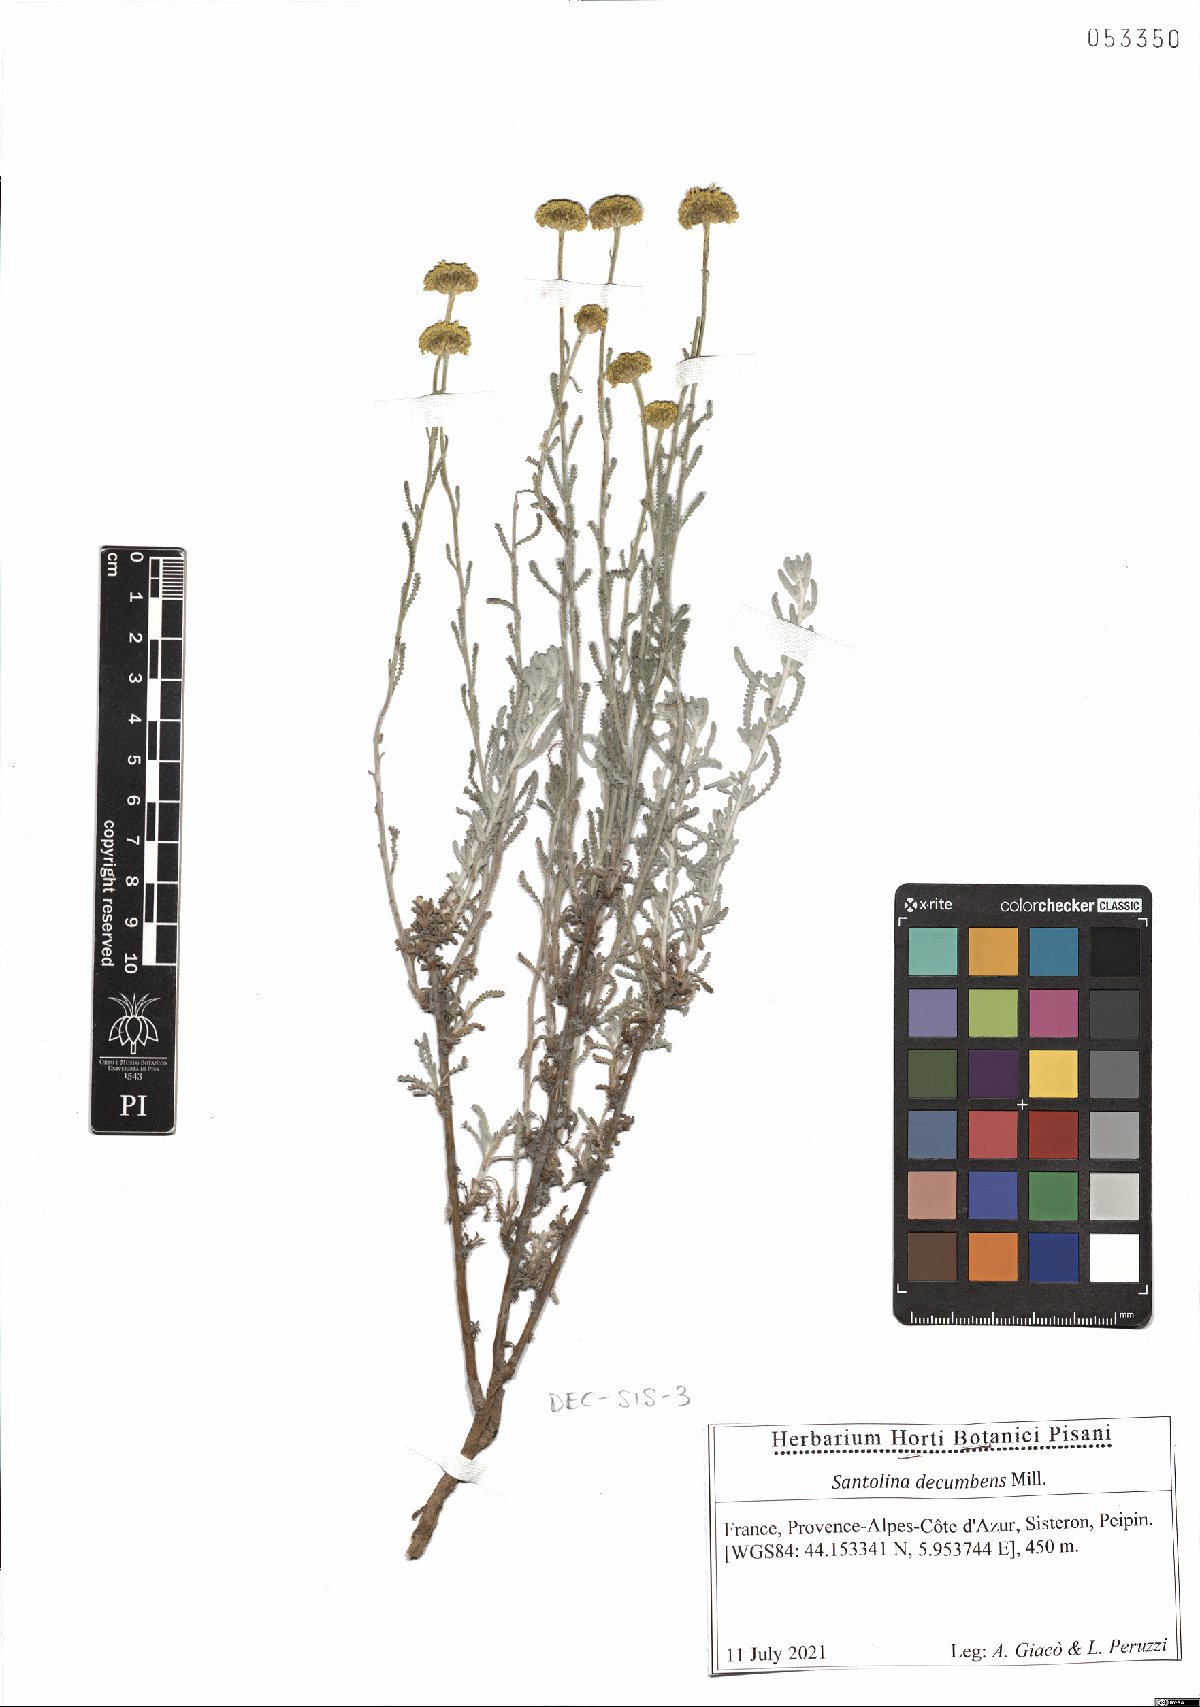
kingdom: Plantae
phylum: Tracheophyta
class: Magnoliopsida
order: Asterales
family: Asteraceae
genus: Santolina
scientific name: Santolina decumbens
